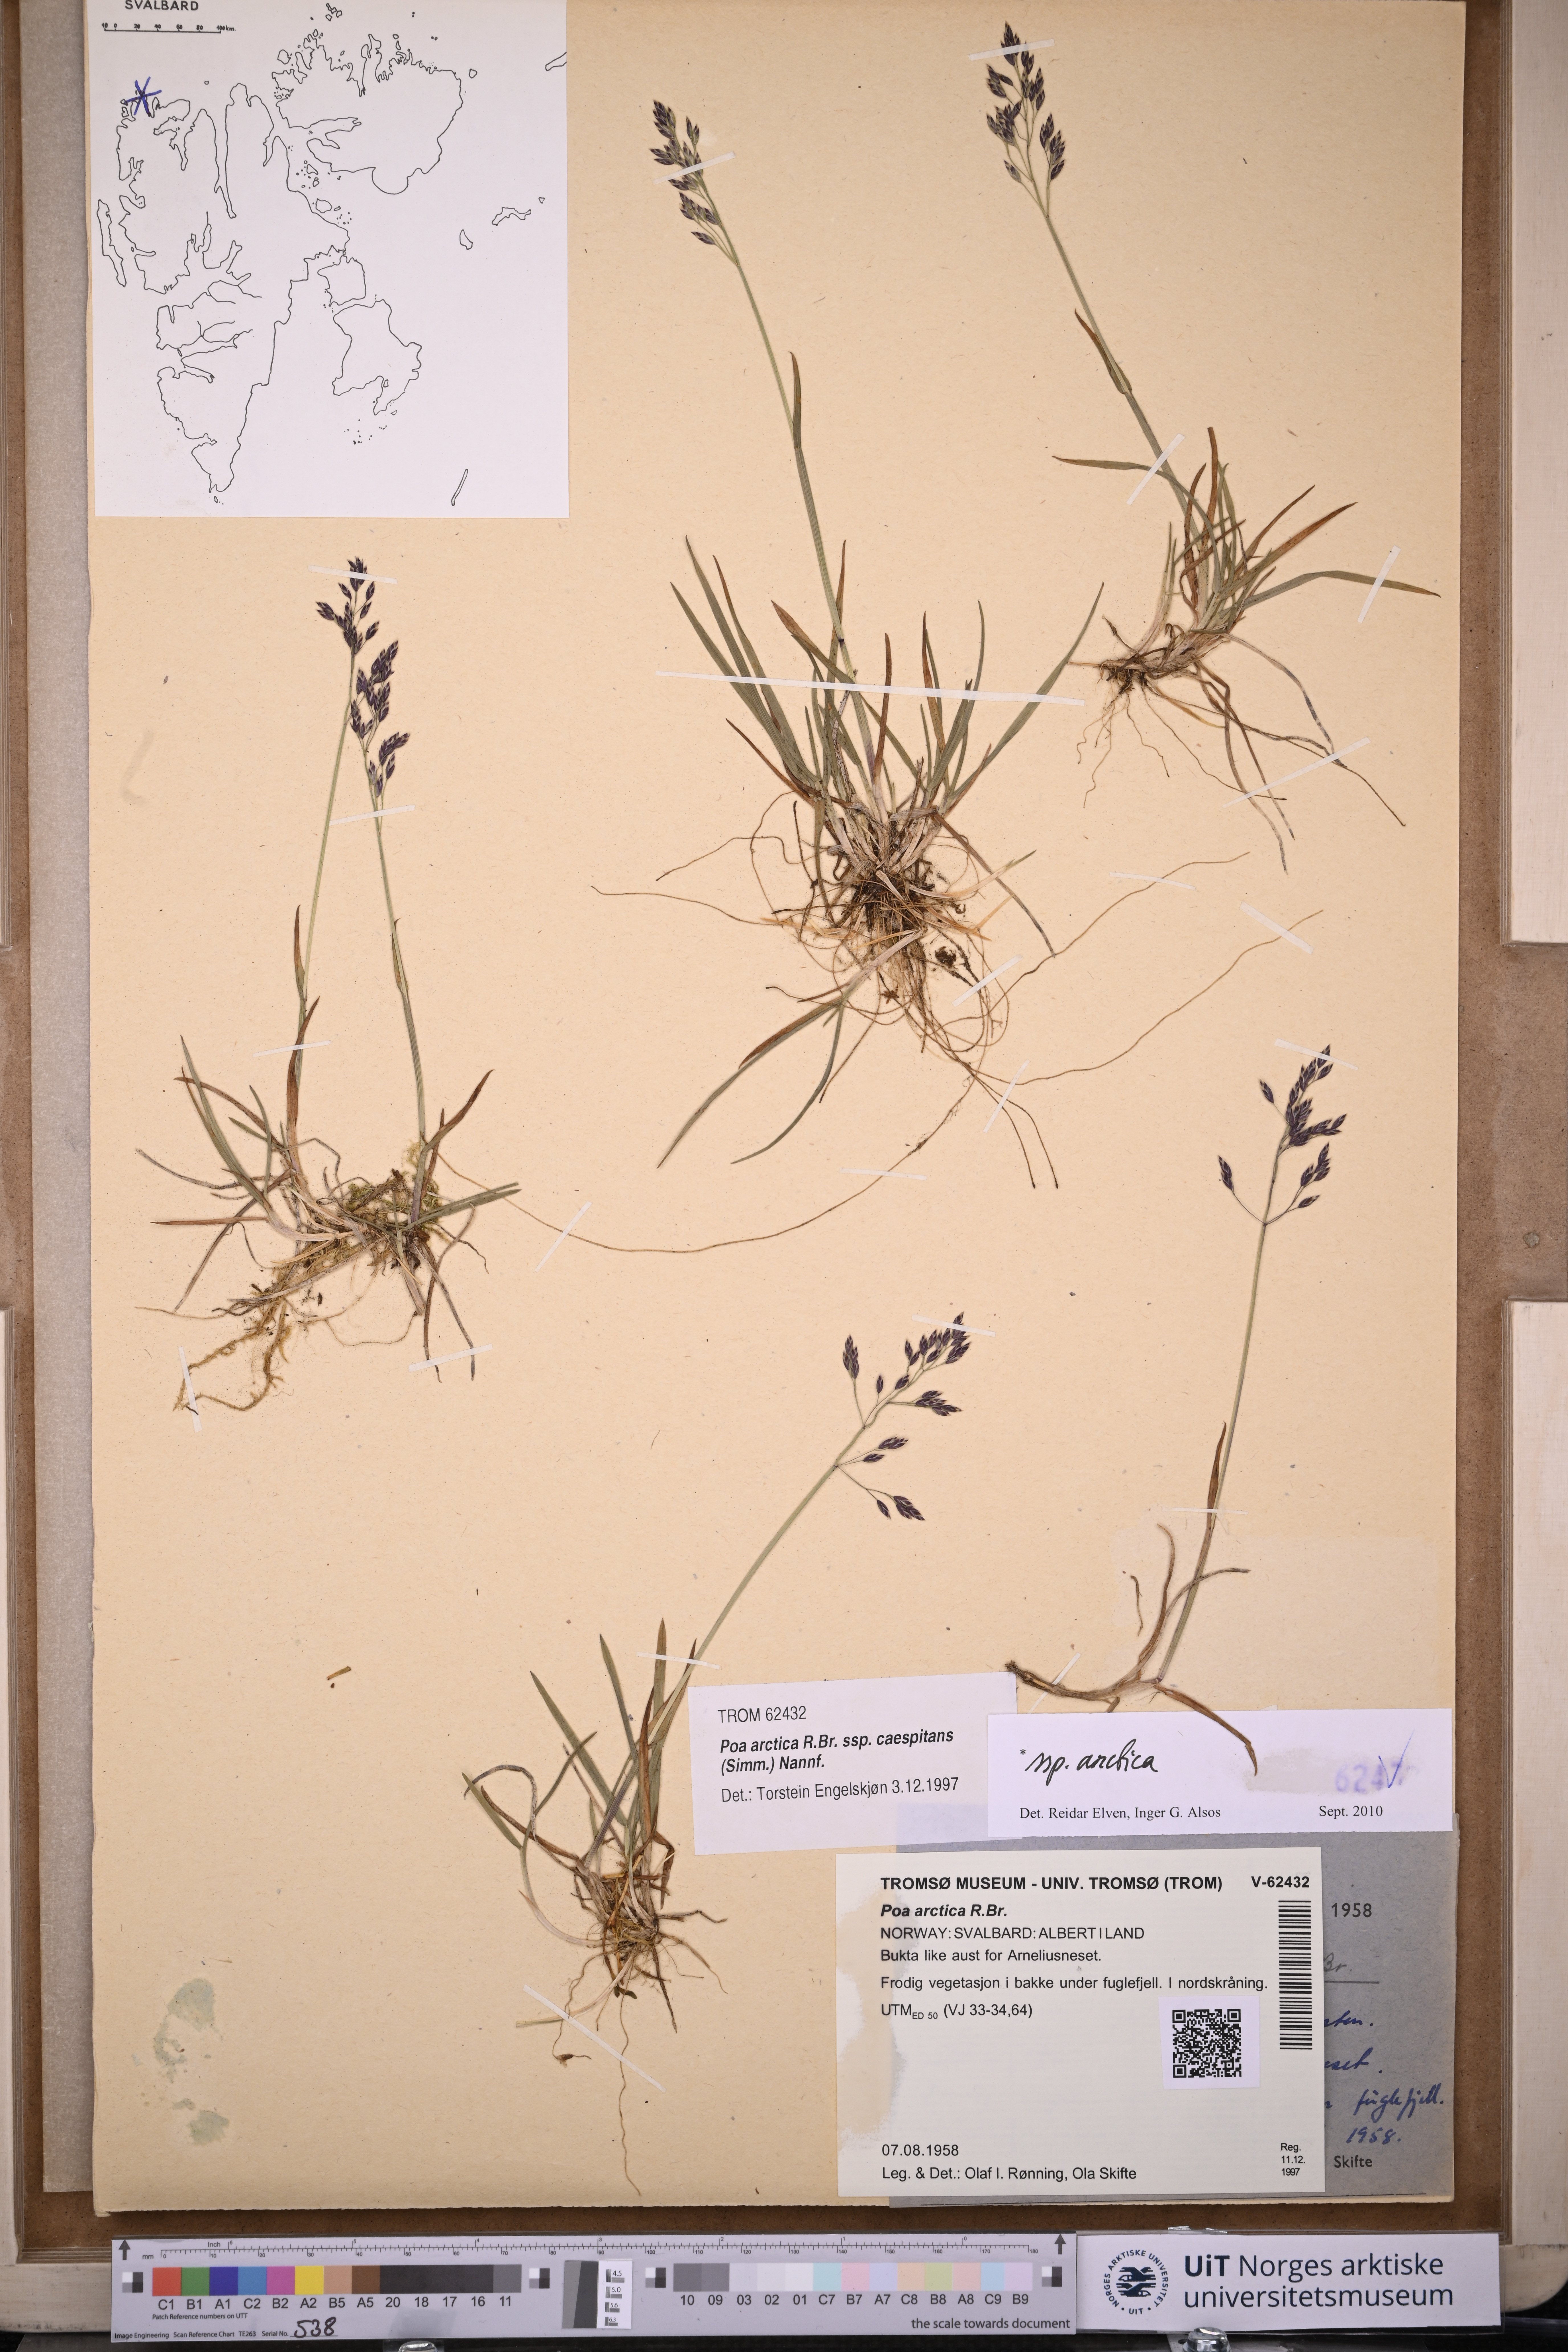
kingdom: Plantae
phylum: Tracheophyta
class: Liliopsida
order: Poales
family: Poaceae
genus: Poa
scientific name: Poa arctica
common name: Arctic bluegrass
